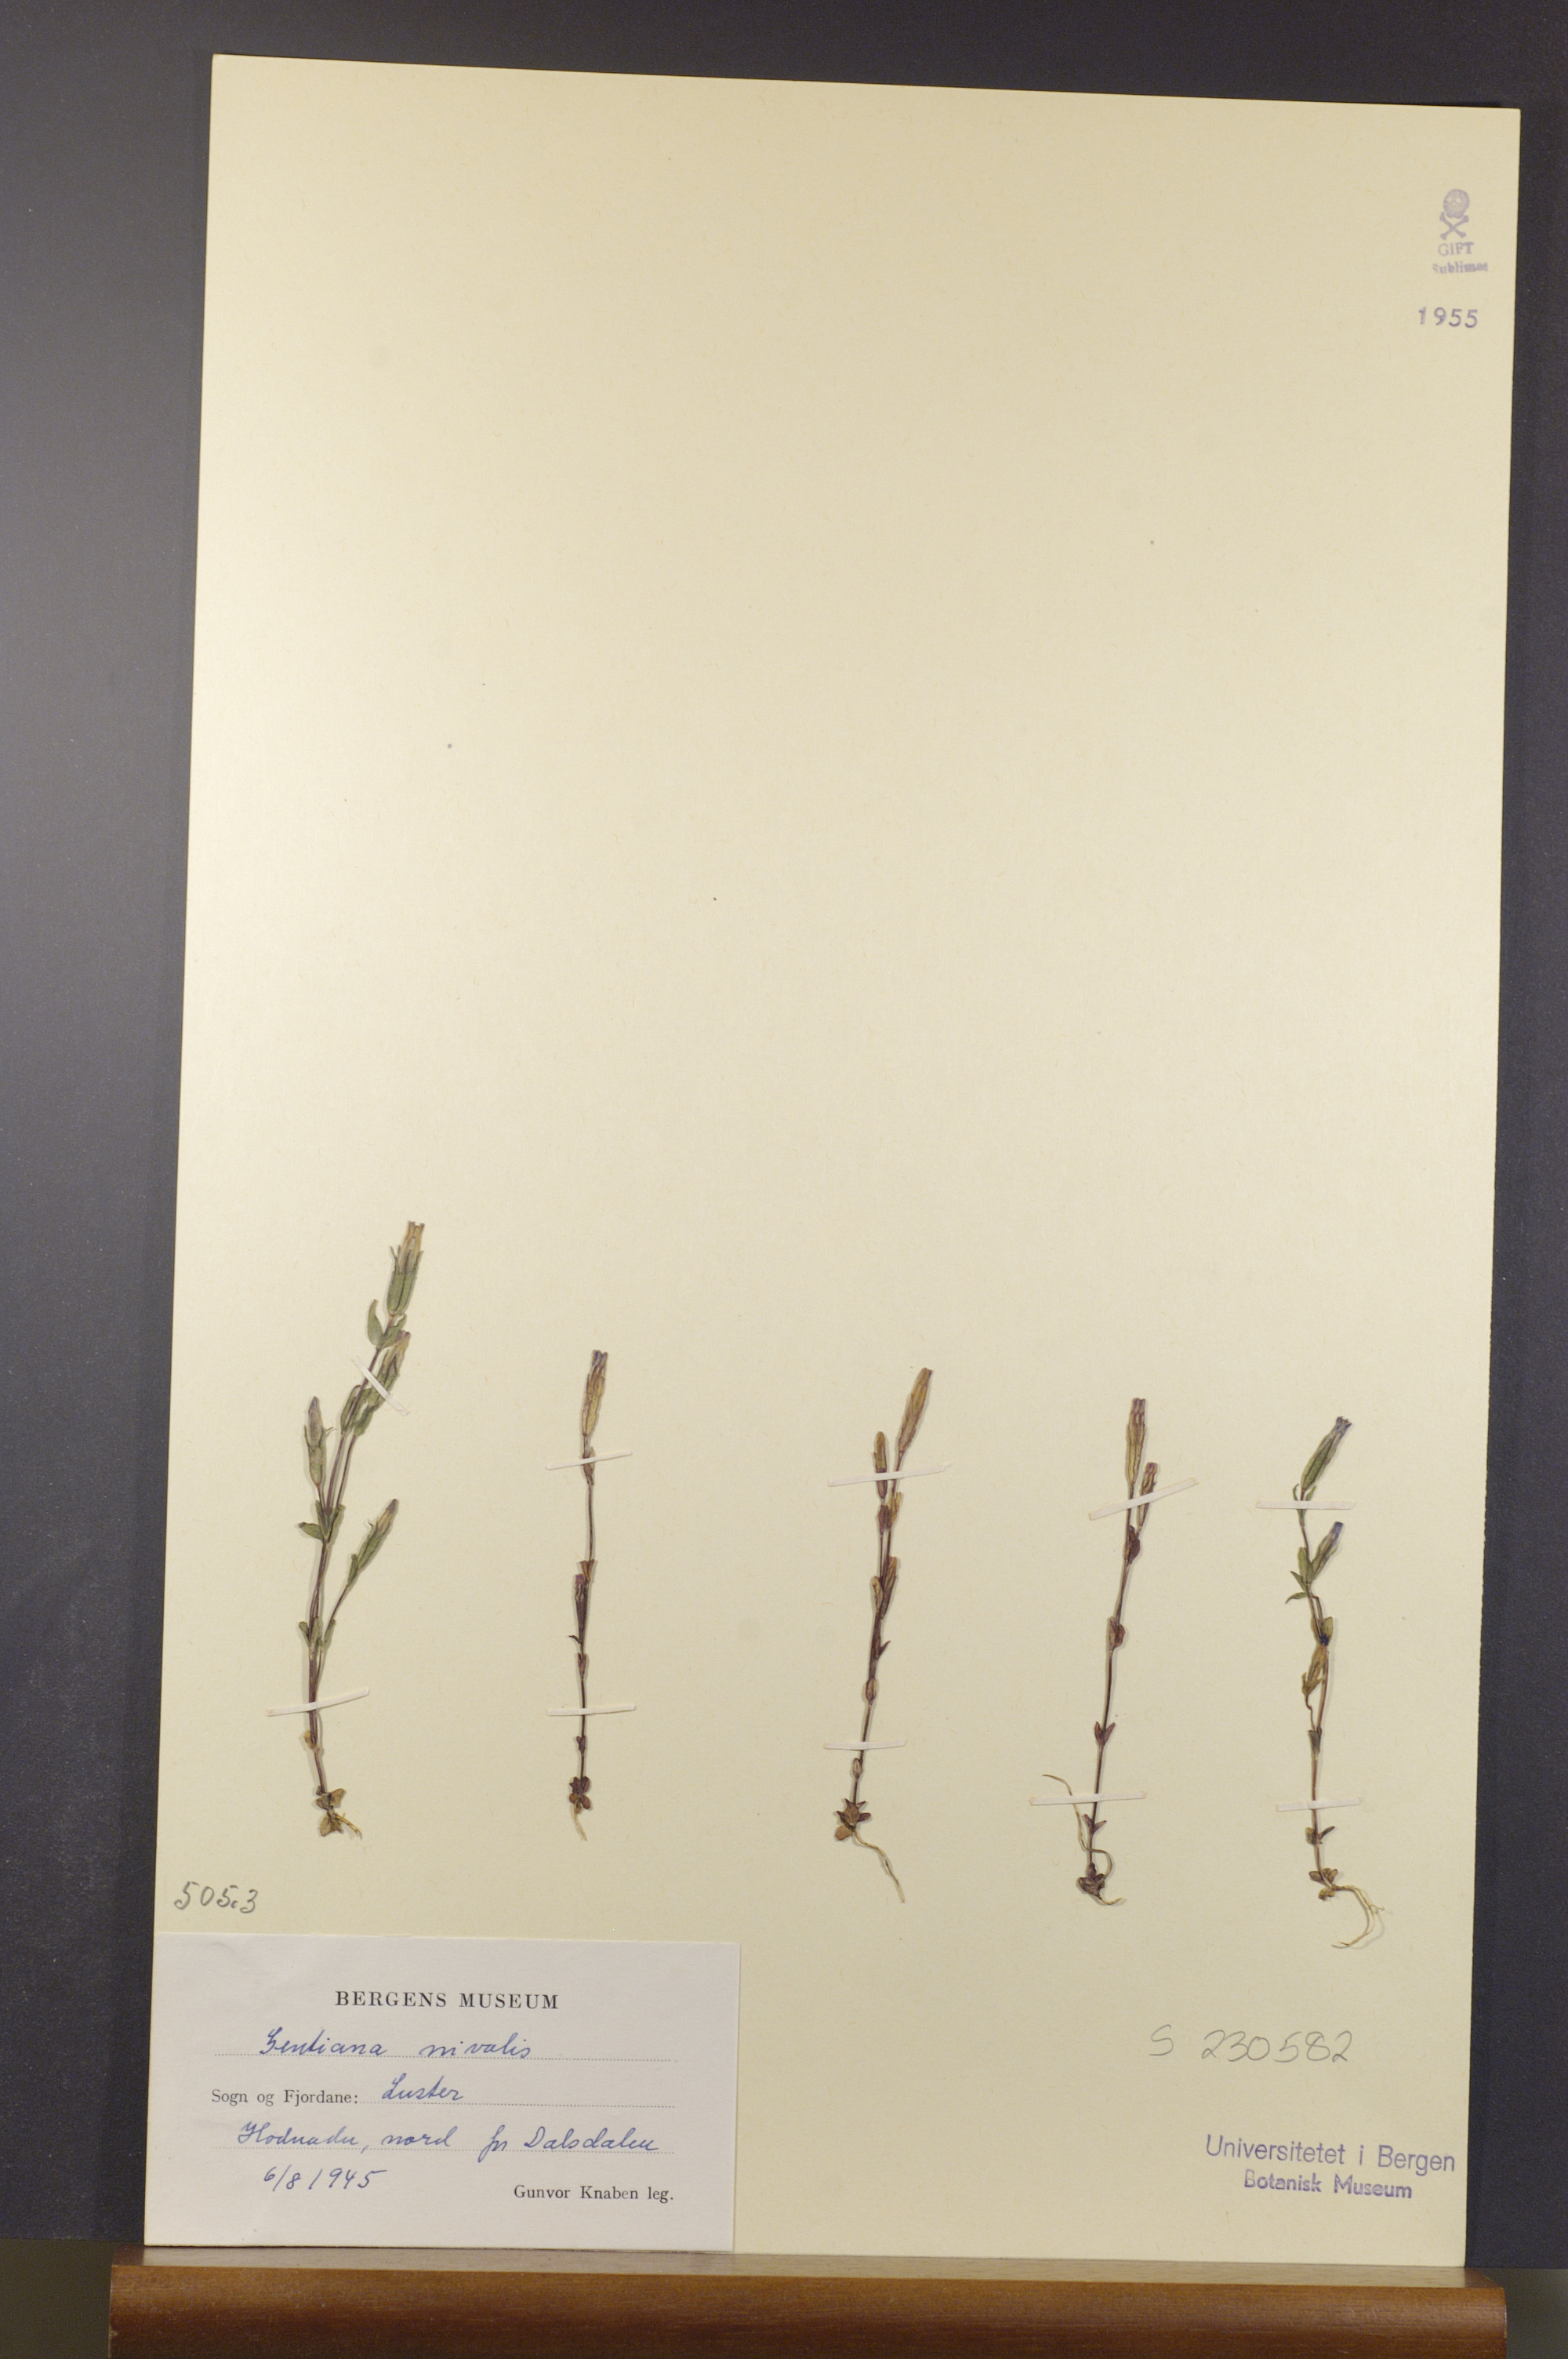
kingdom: Plantae
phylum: Tracheophyta
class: Magnoliopsida
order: Gentianales
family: Gentianaceae
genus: Gentiana
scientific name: Gentiana nivalis
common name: Alpine gentian
